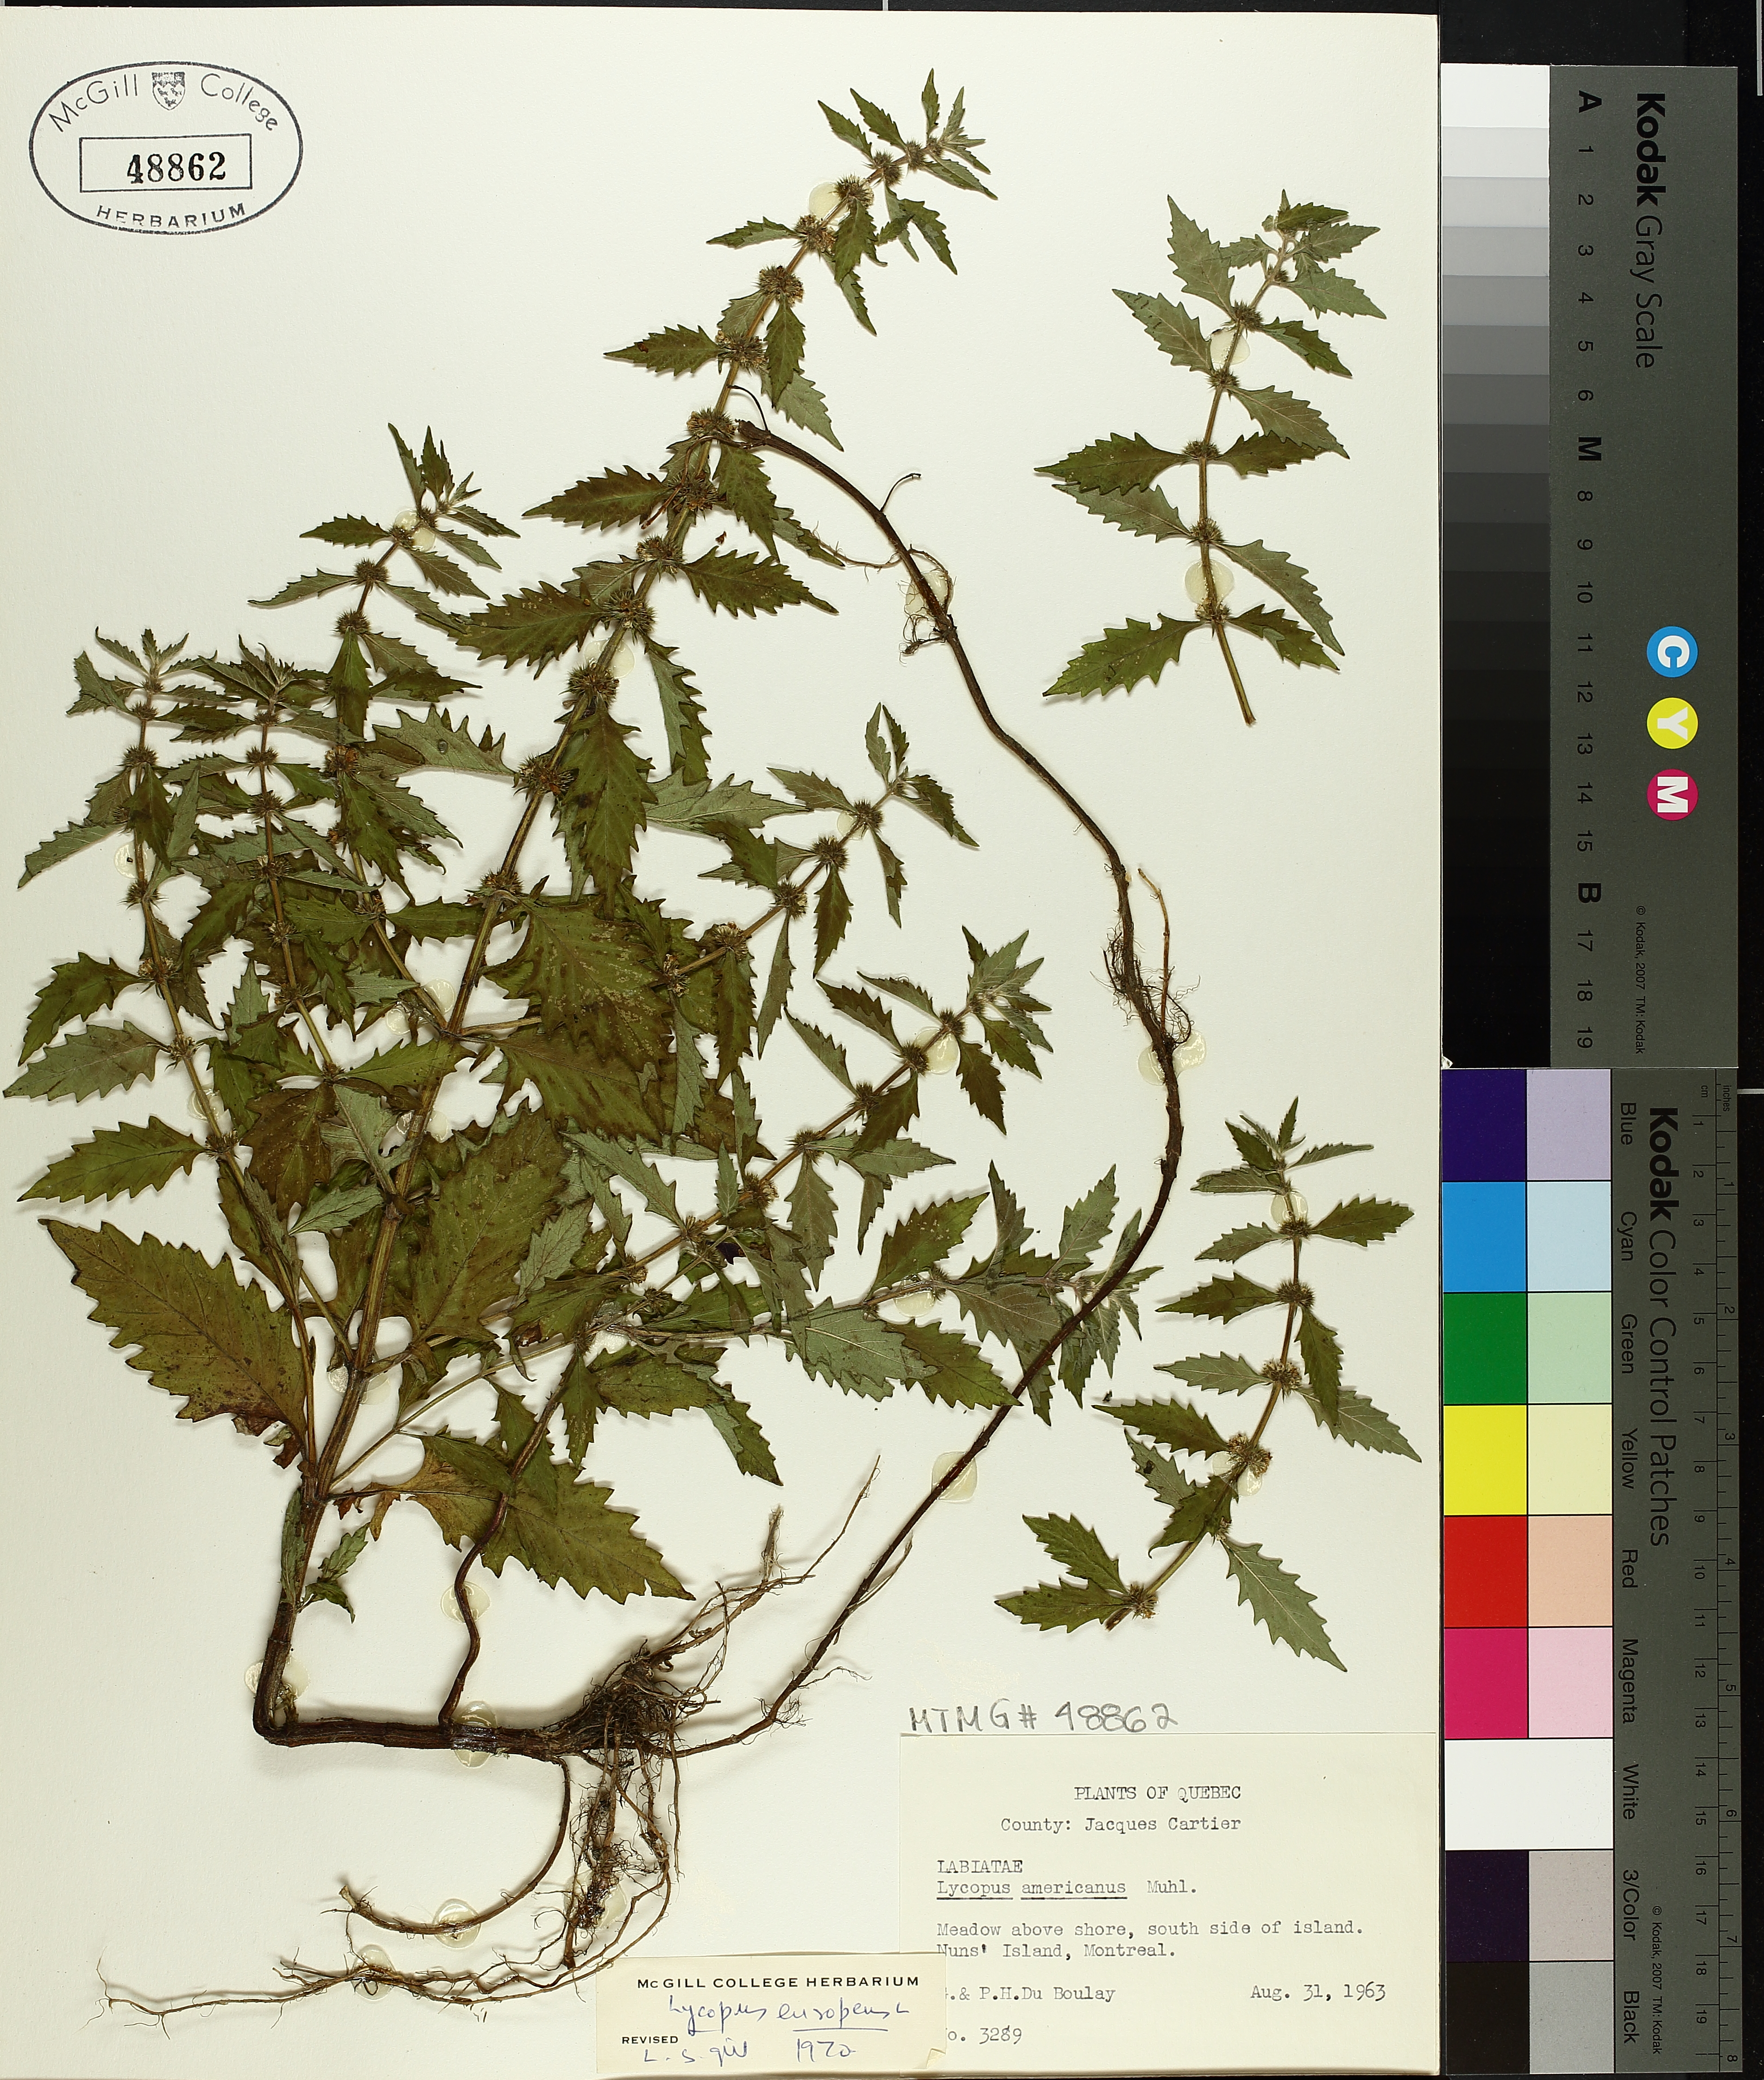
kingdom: Plantae
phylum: Tracheophyta
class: Magnoliopsida
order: Lamiales
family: Lamiaceae
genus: Lycopus
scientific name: Lycopus europaeus
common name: European bugleweed
